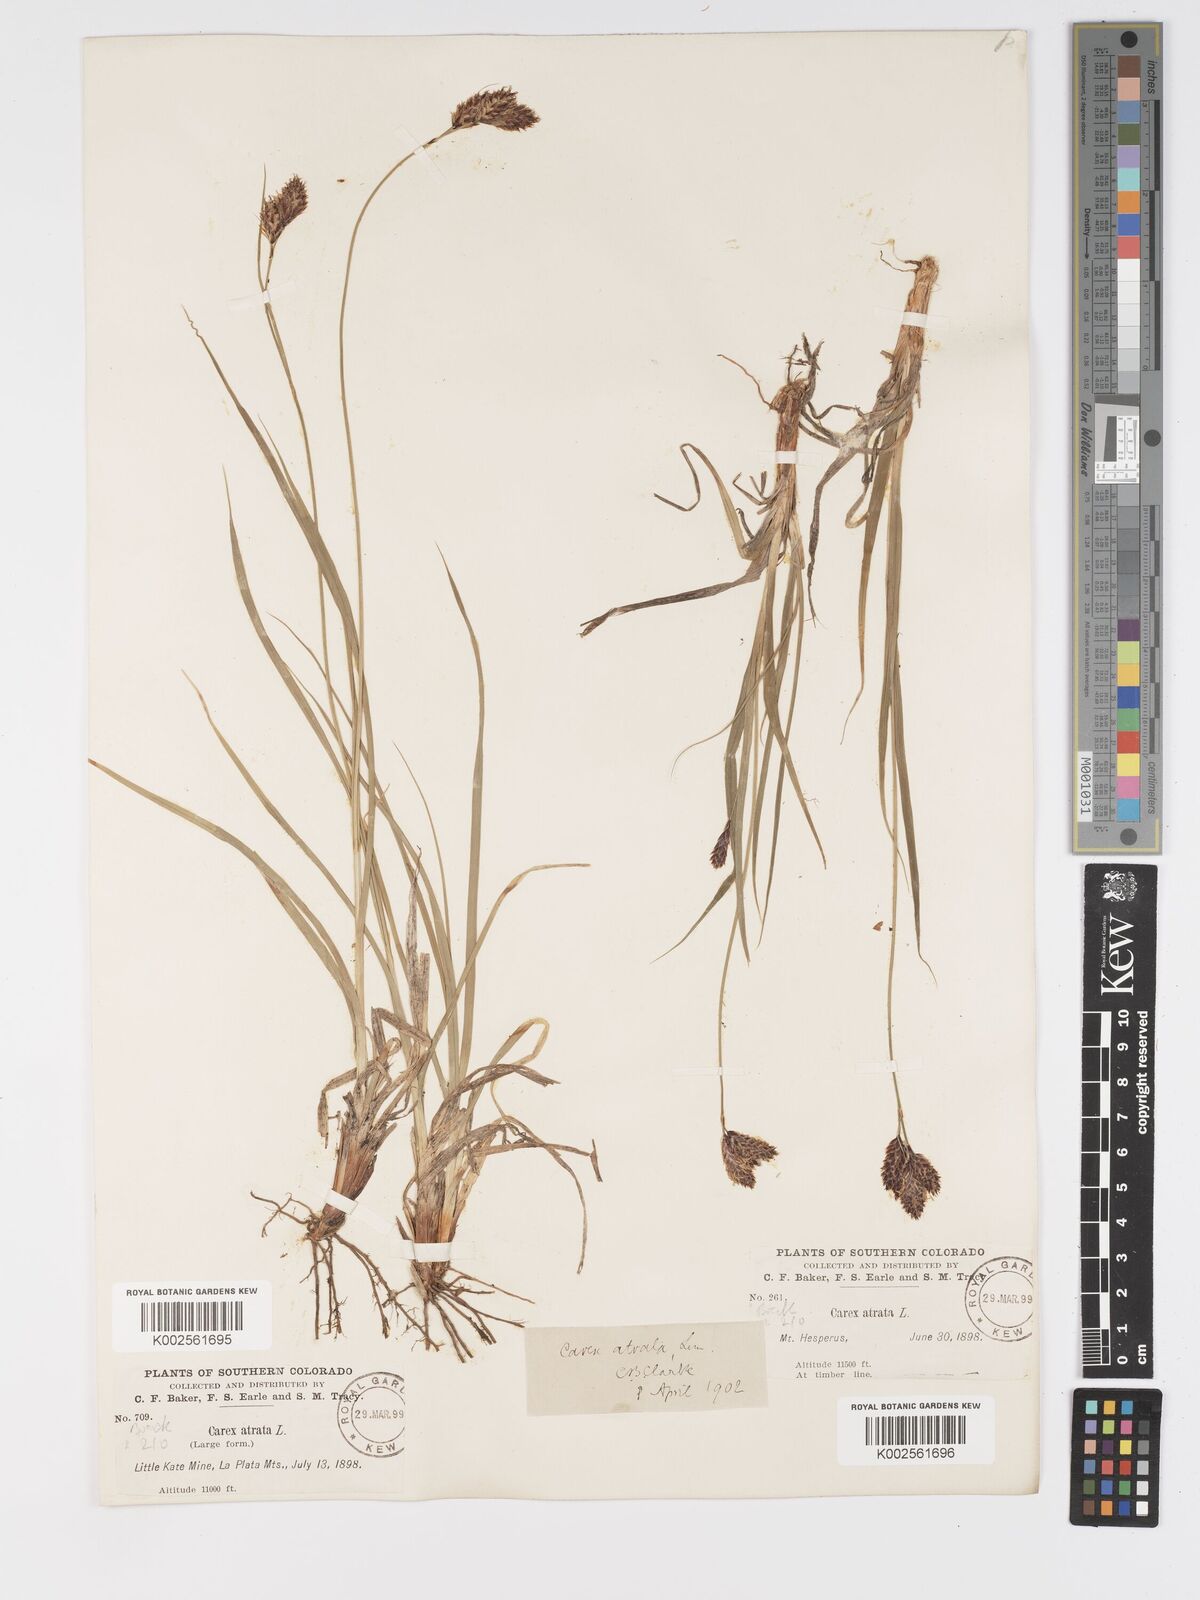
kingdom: Plantae
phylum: Tracheophyta
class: Liliopsida
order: Poales
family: Cyperaceae
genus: Carex
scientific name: Carex chalciolepis
